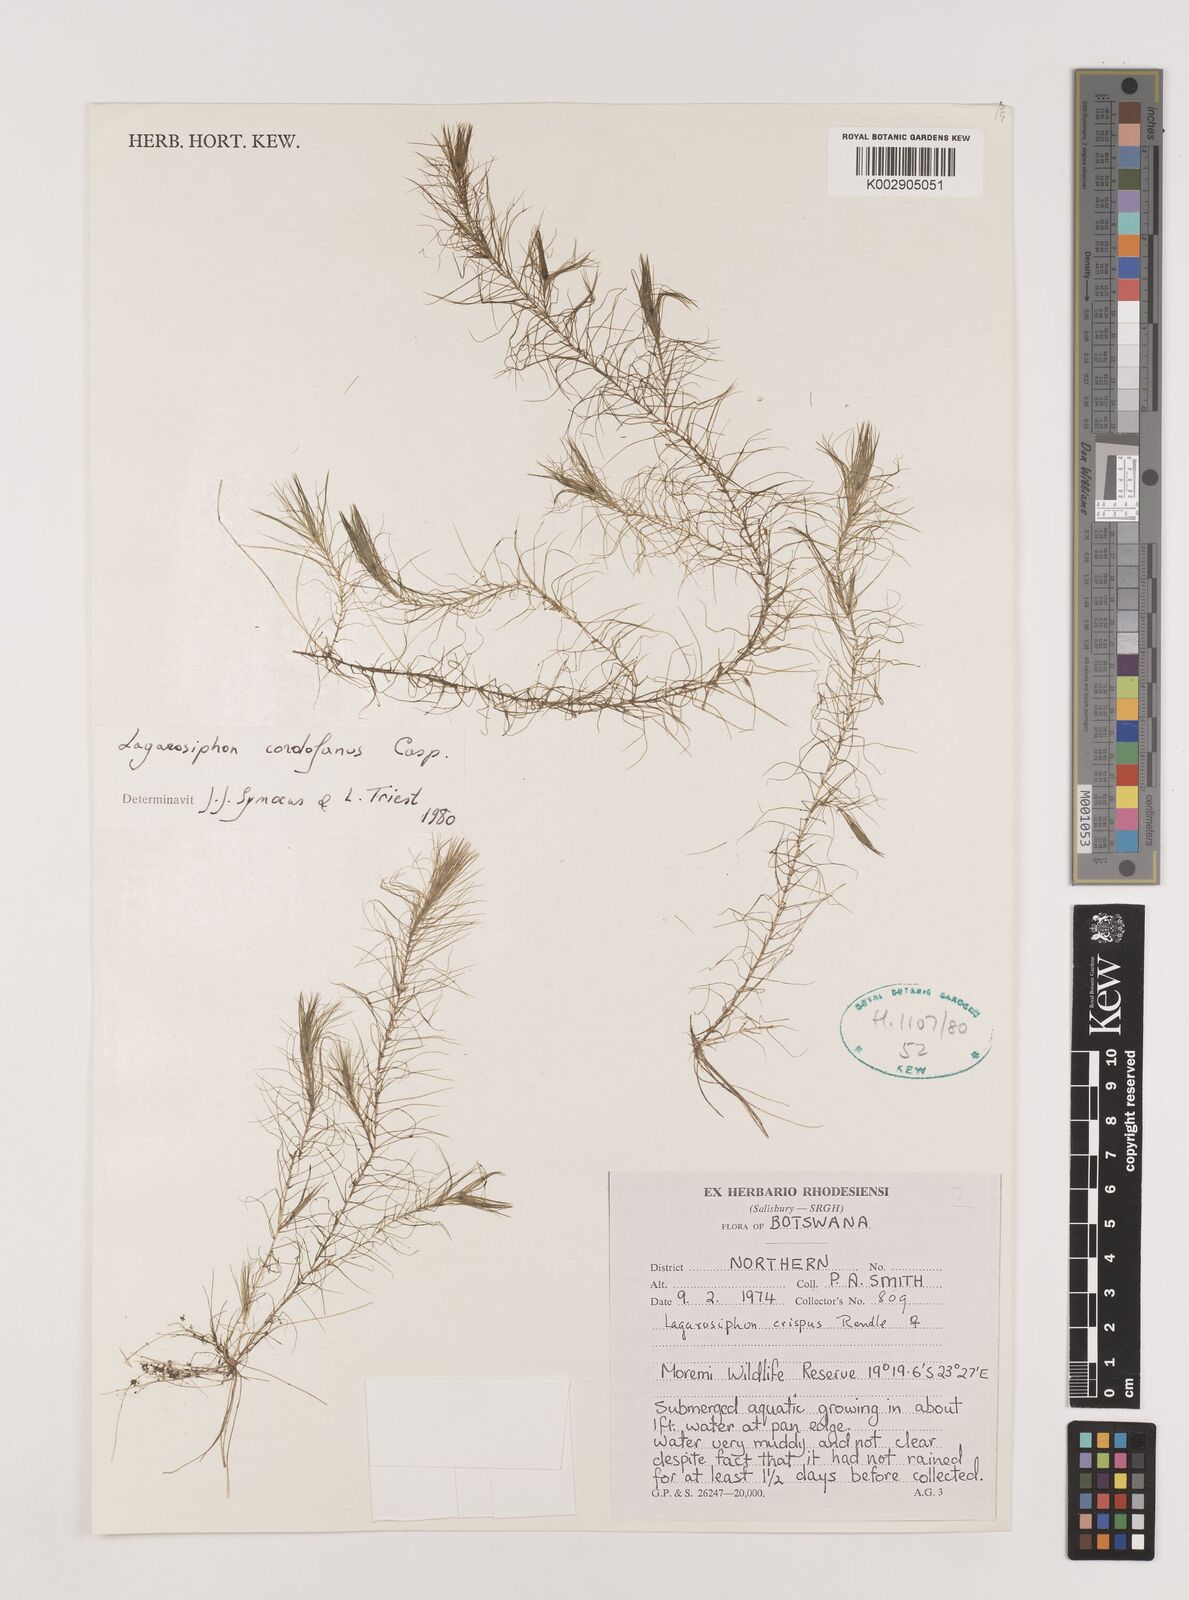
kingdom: Plantae
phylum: Tracheophyta
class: Liliopsida
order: Alismatales
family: Hydrocharitaceae
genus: Lagarosiphon
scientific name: Lagarosiphon cordofanus
